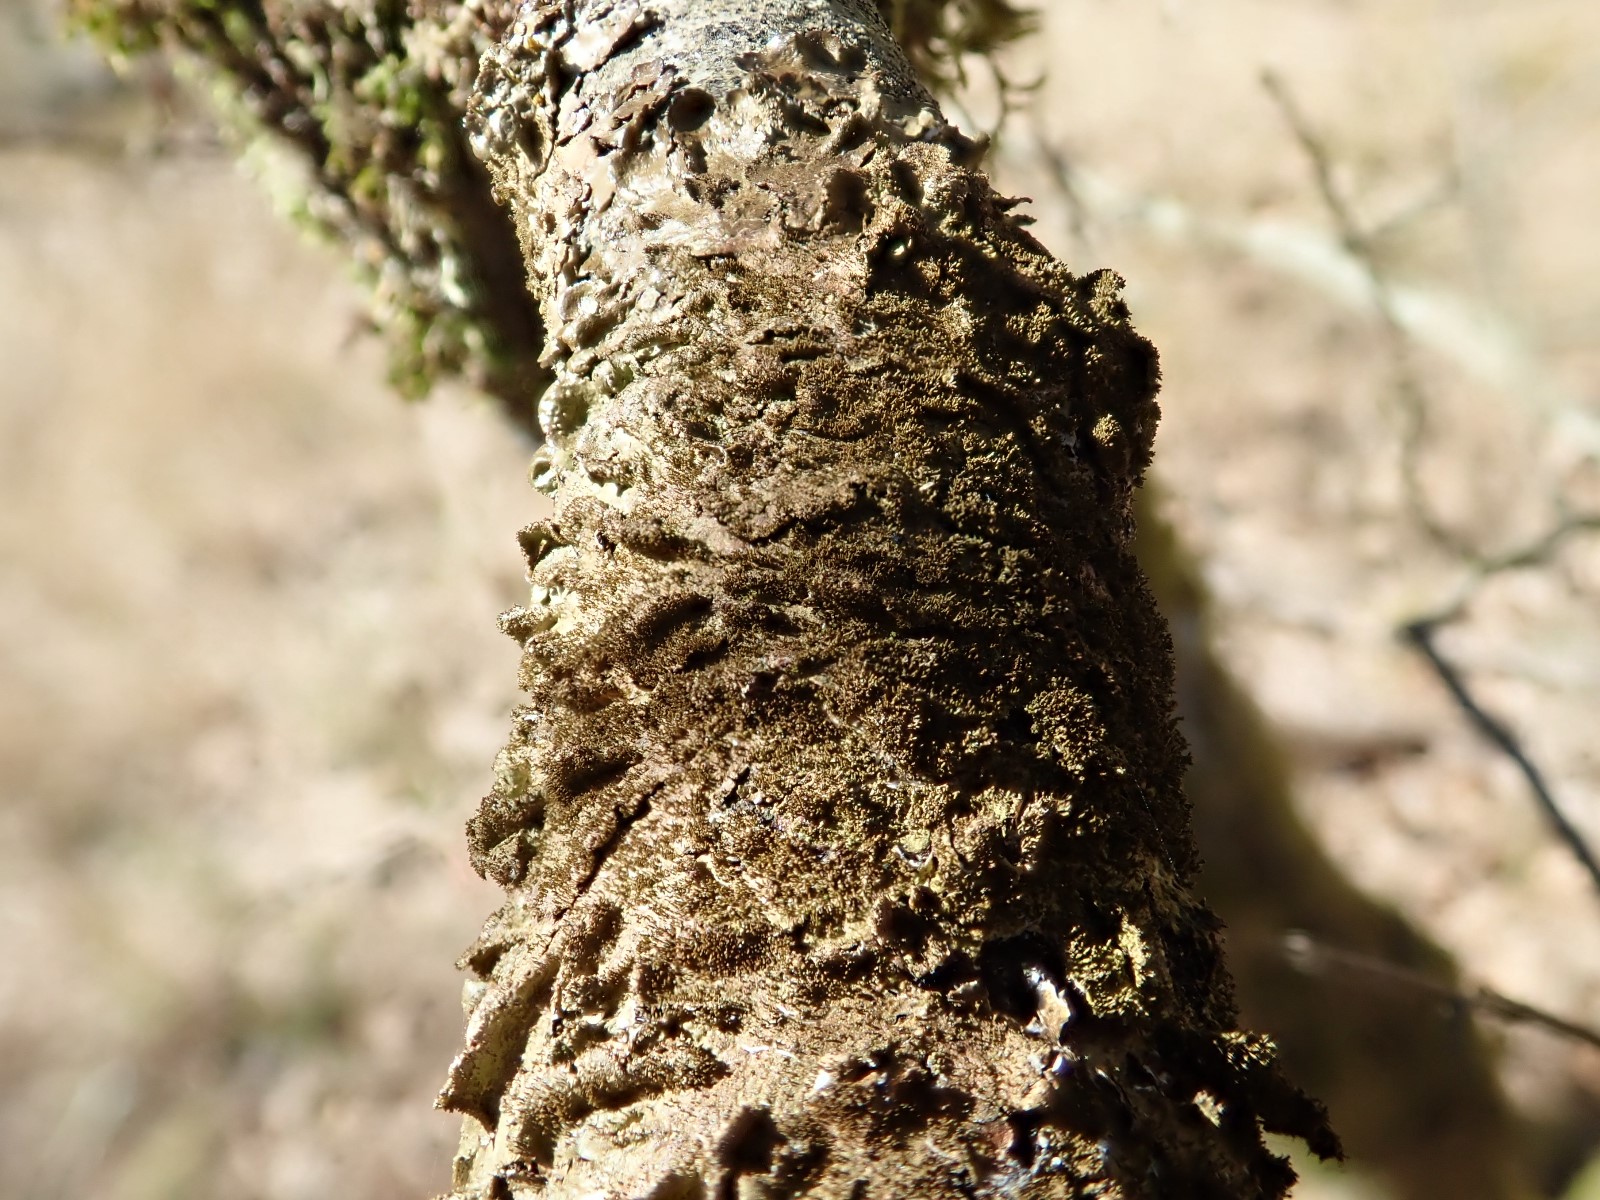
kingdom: Fungi
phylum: Ascomycota
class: Lecanoromycetes
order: Lecanorales
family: Parmeliaceae
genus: Melanelixia
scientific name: Melanelixia subaurifera
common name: guldpudret skållav
